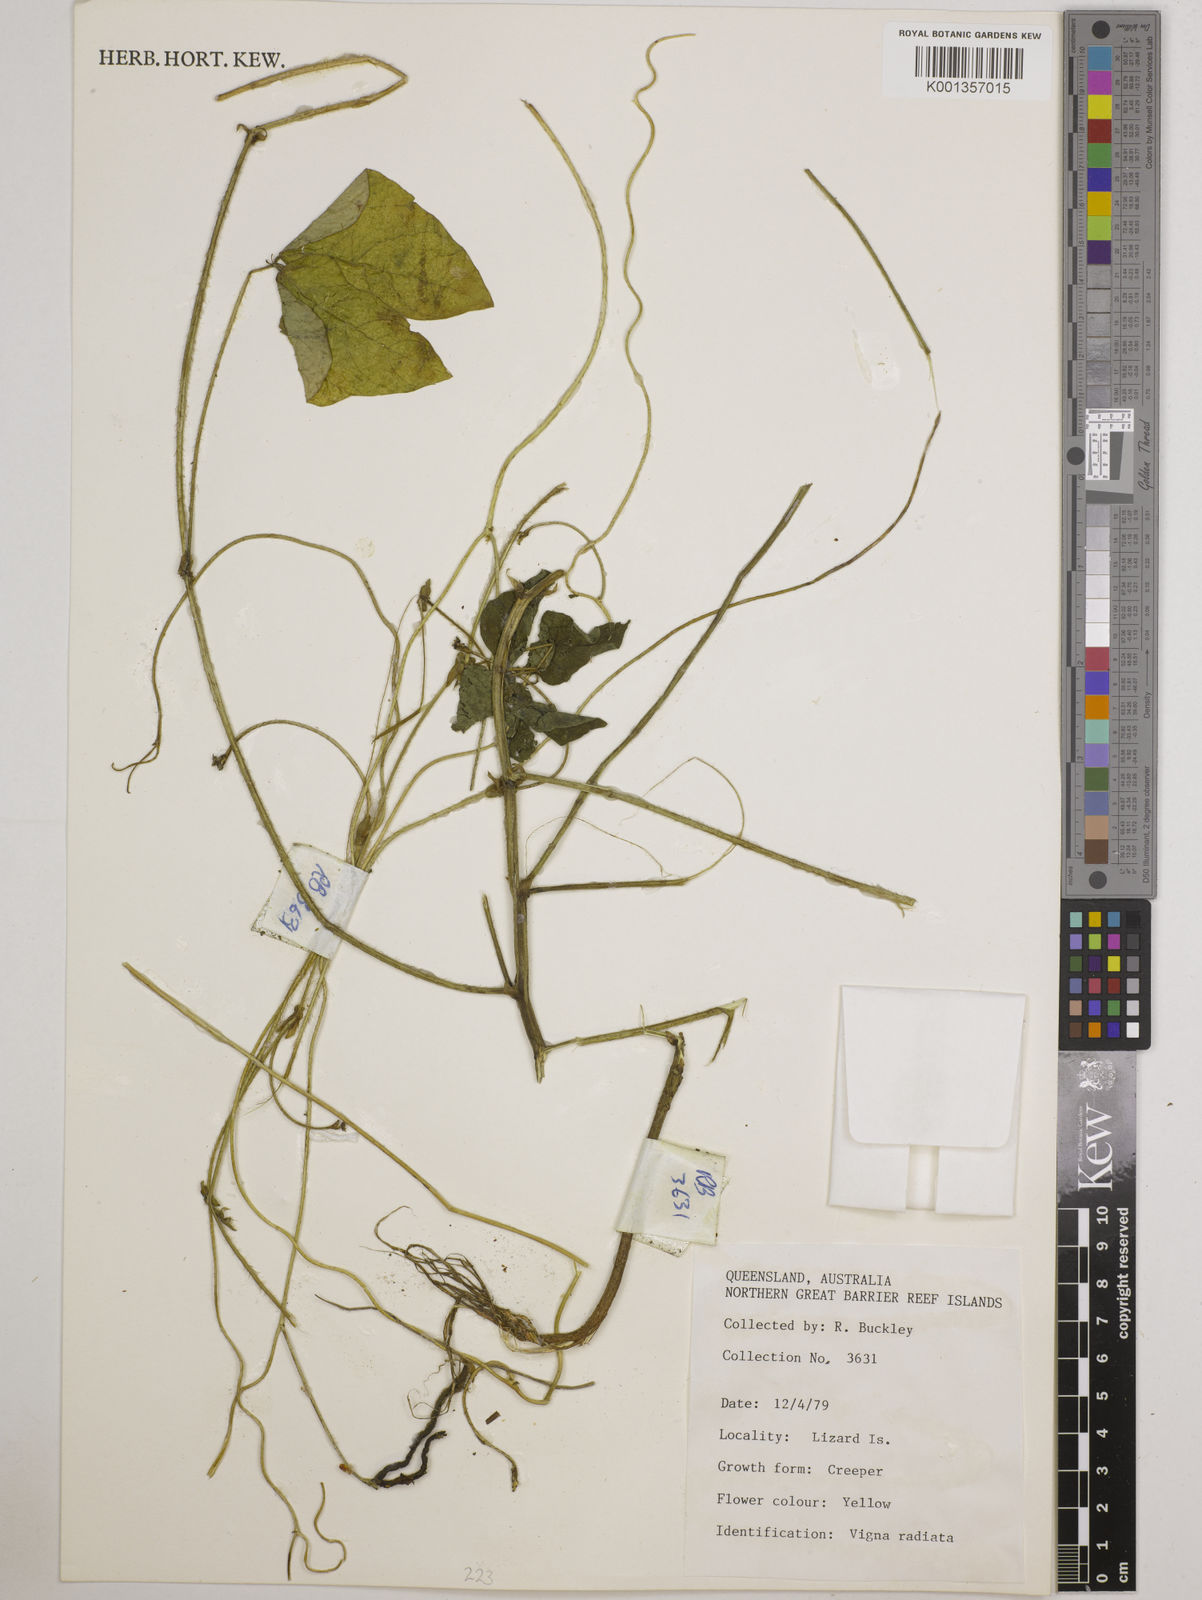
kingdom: Plantae
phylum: Tracheophyta
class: Magnoliopsida
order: Fabales
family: Fabaceae
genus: Vigna
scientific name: Vigna radiata
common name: Mung-bean
